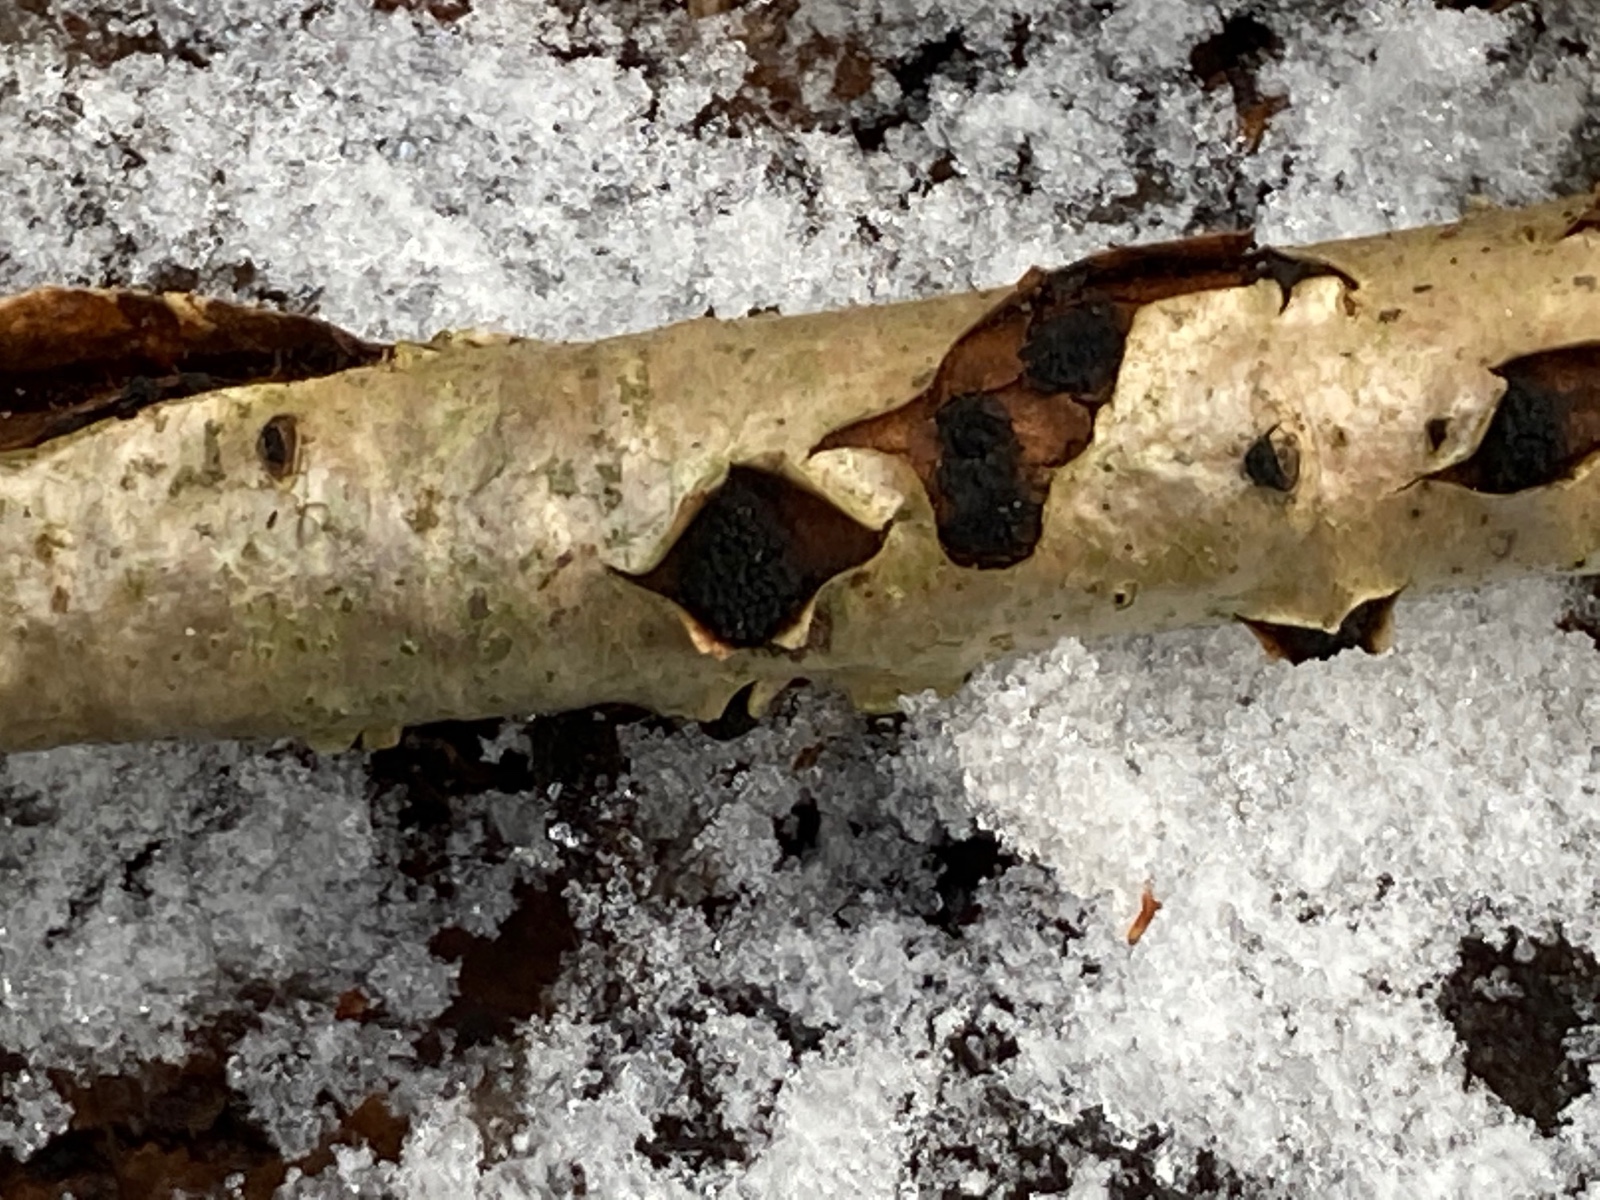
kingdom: Fungi
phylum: Ascomycota
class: Sordariomycetes
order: Xylariales
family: Diatrypaceae
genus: Eutypella
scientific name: Eutypella sorbi
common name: rønne-kulskorpe
